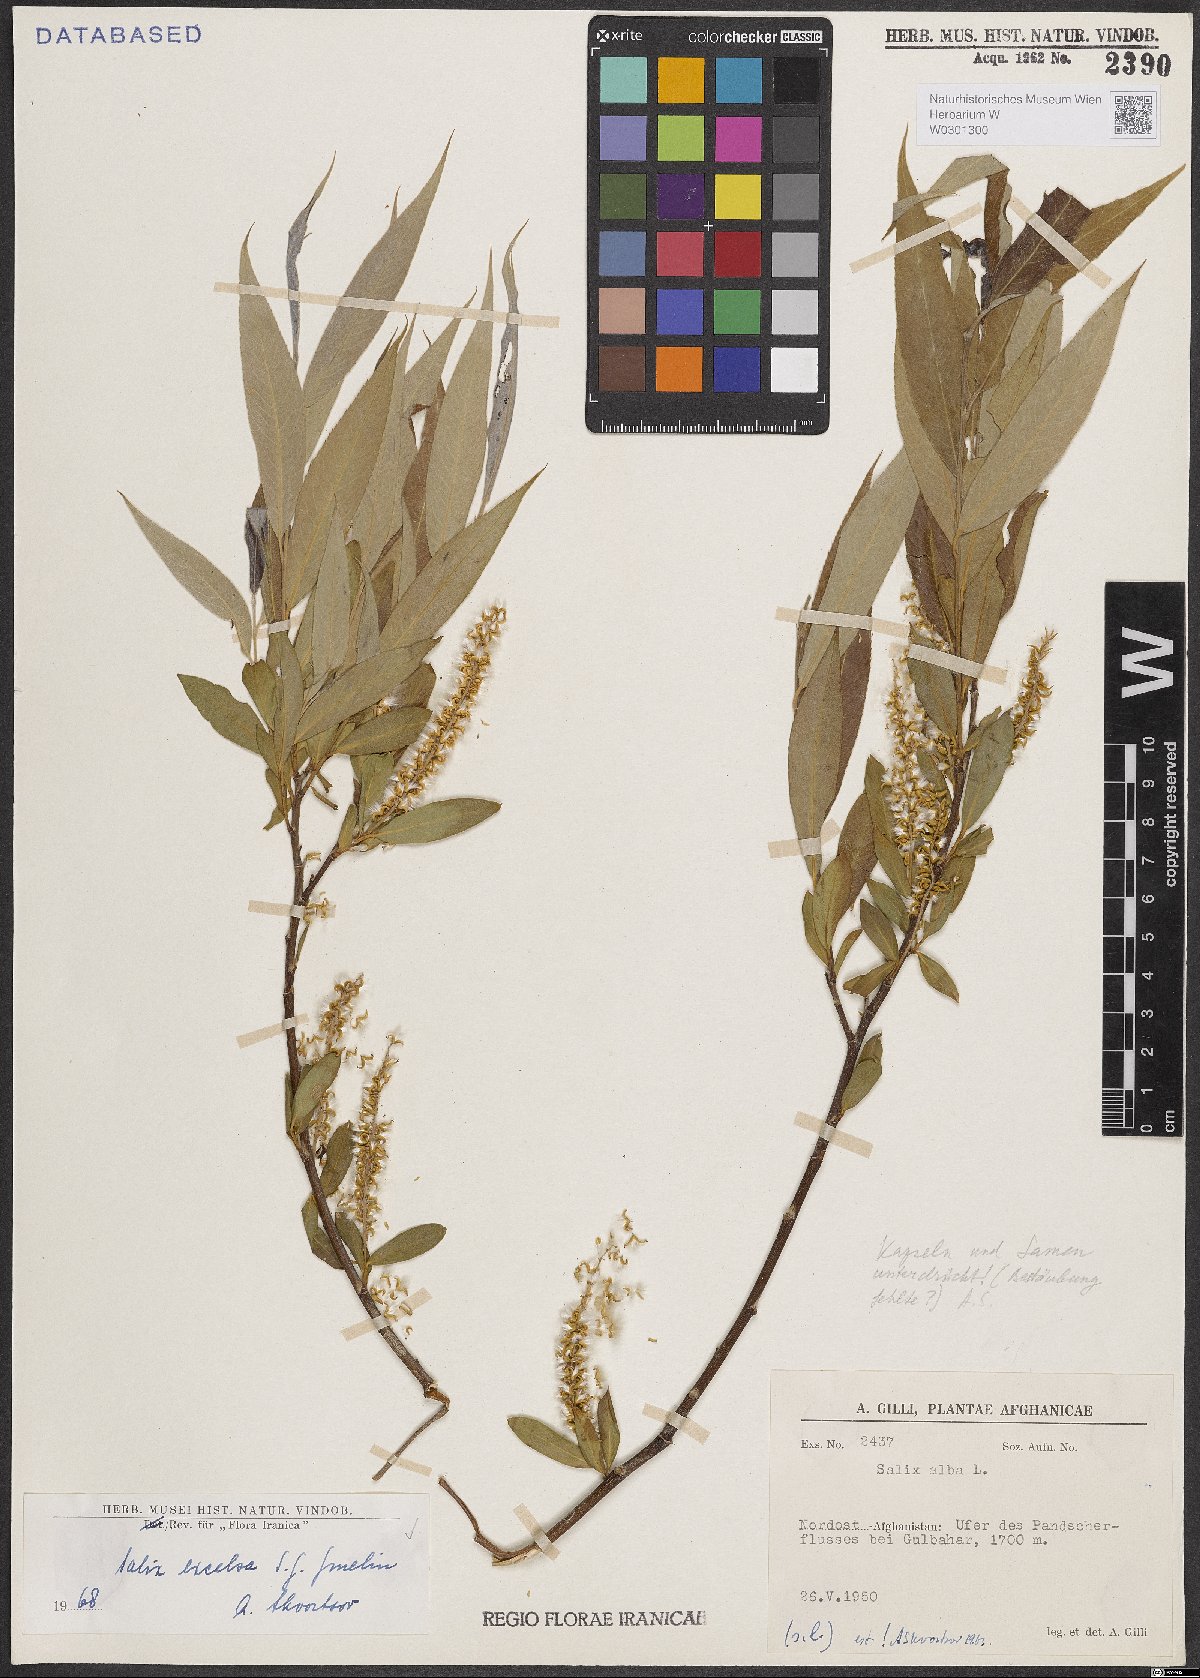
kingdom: Plantae
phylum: Tracheophyta
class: Magnoliopsida
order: Malpighiales
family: Salicaceae
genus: Salix
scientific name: Salix excelsa
